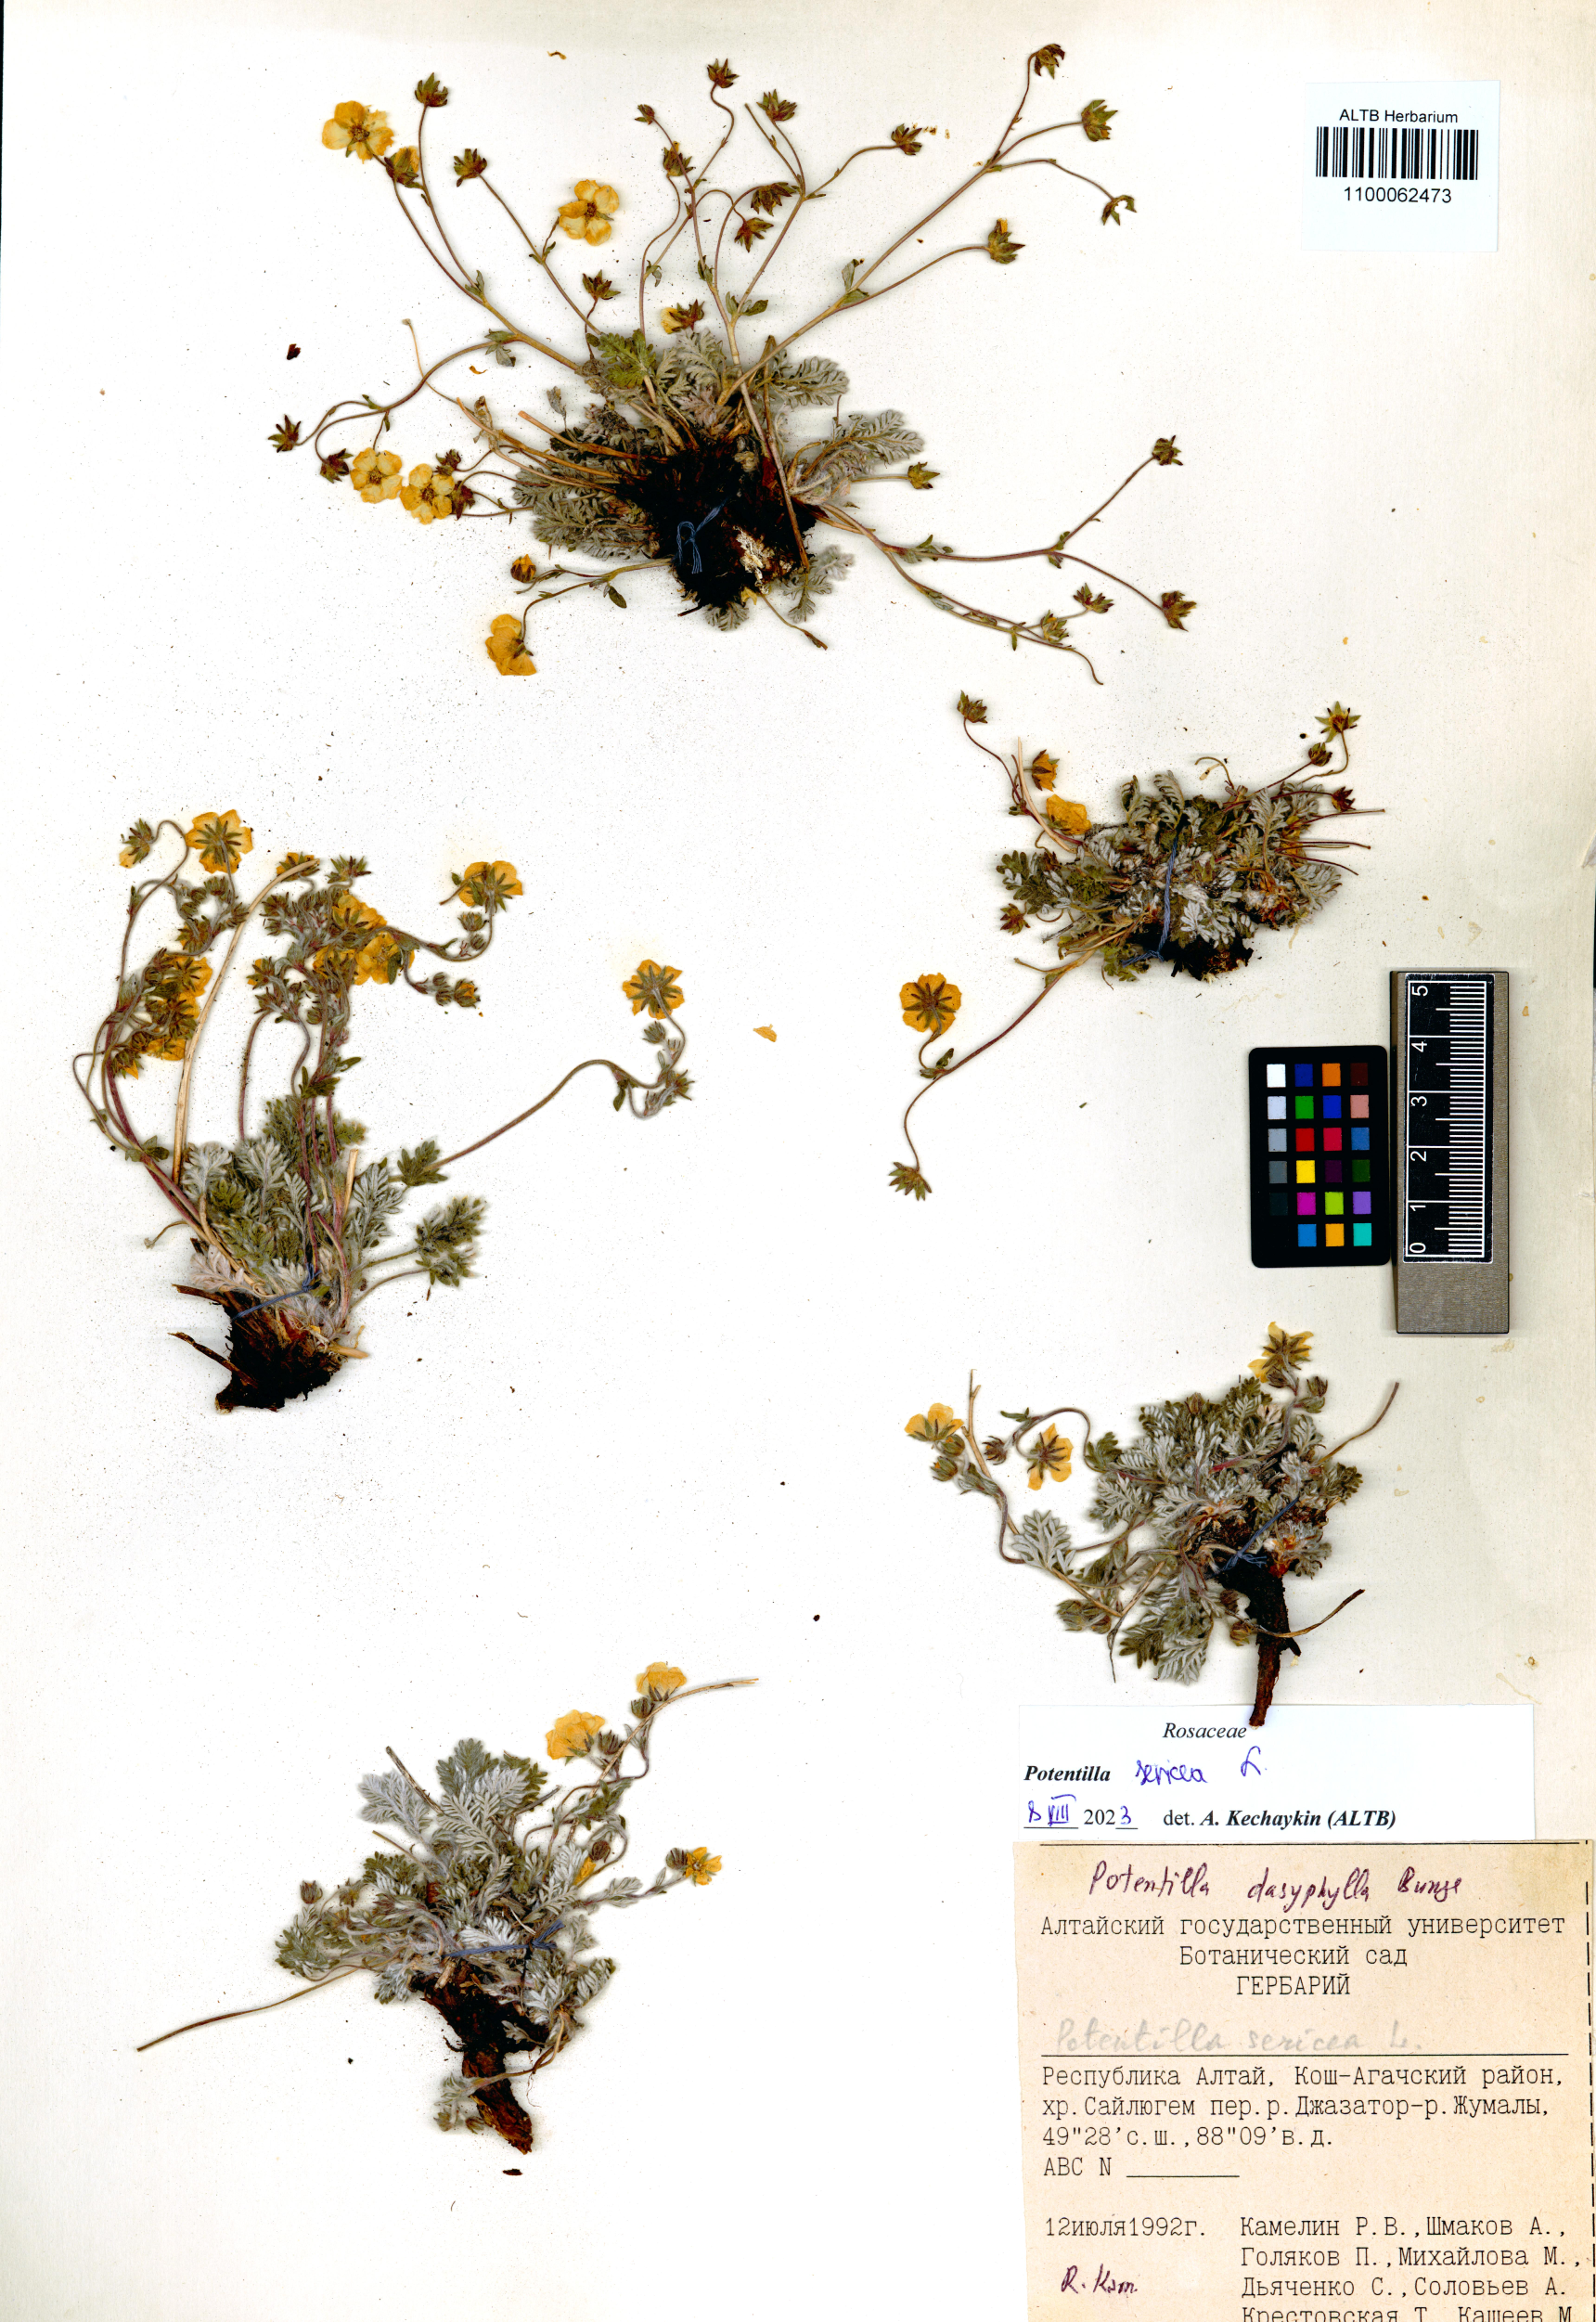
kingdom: Plantae
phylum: Tracheophyta
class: Magnoliopsida
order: Rosales
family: Rosaceae
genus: Potentilla
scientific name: Potentilla sericea
